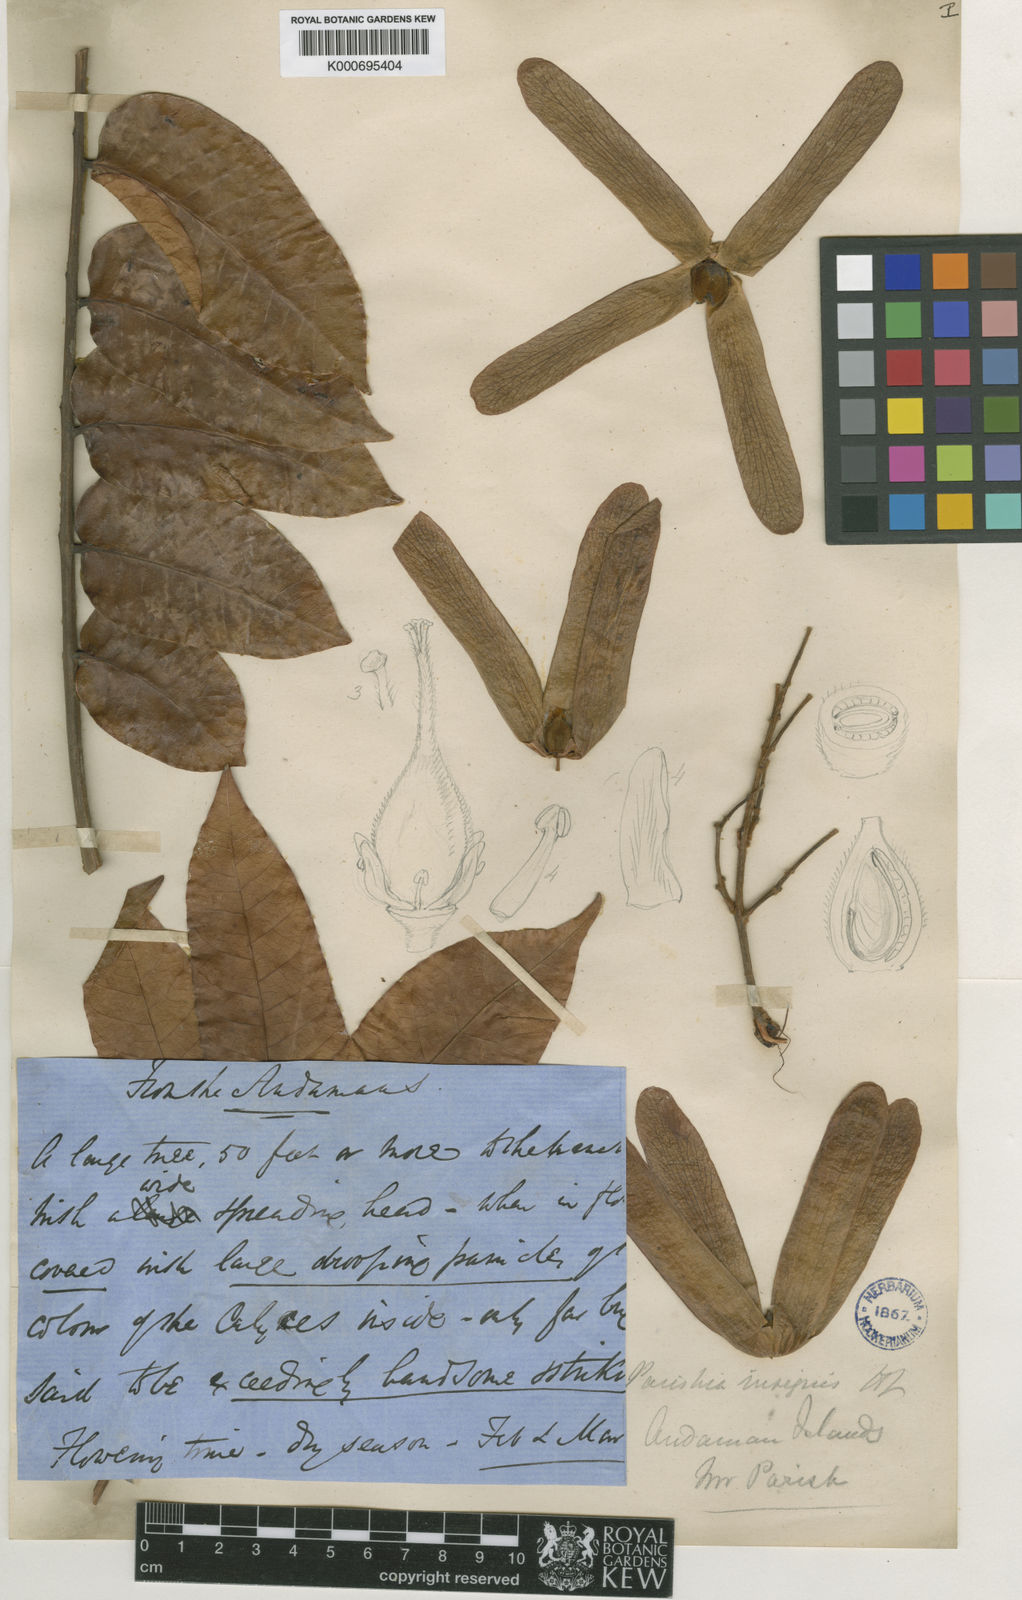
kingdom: Plantae
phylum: Tracheophyta
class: Magnoliopsida
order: Sapindales
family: Anacardiaceae
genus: Parishia
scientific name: Parishia insignis
